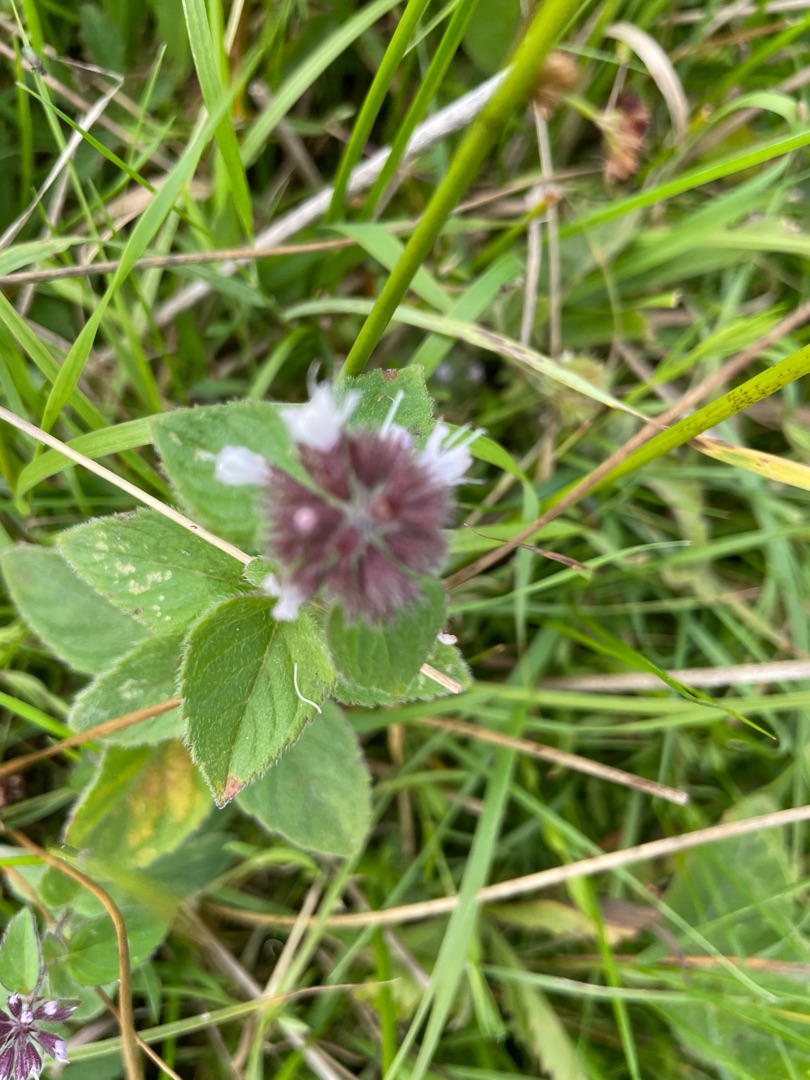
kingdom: Plantae
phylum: Tracheophyta
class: Magnoliopsida
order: Lamiales
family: Lamiaceae
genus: Mentha
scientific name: Mentha aquatica
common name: Vand-mynte
